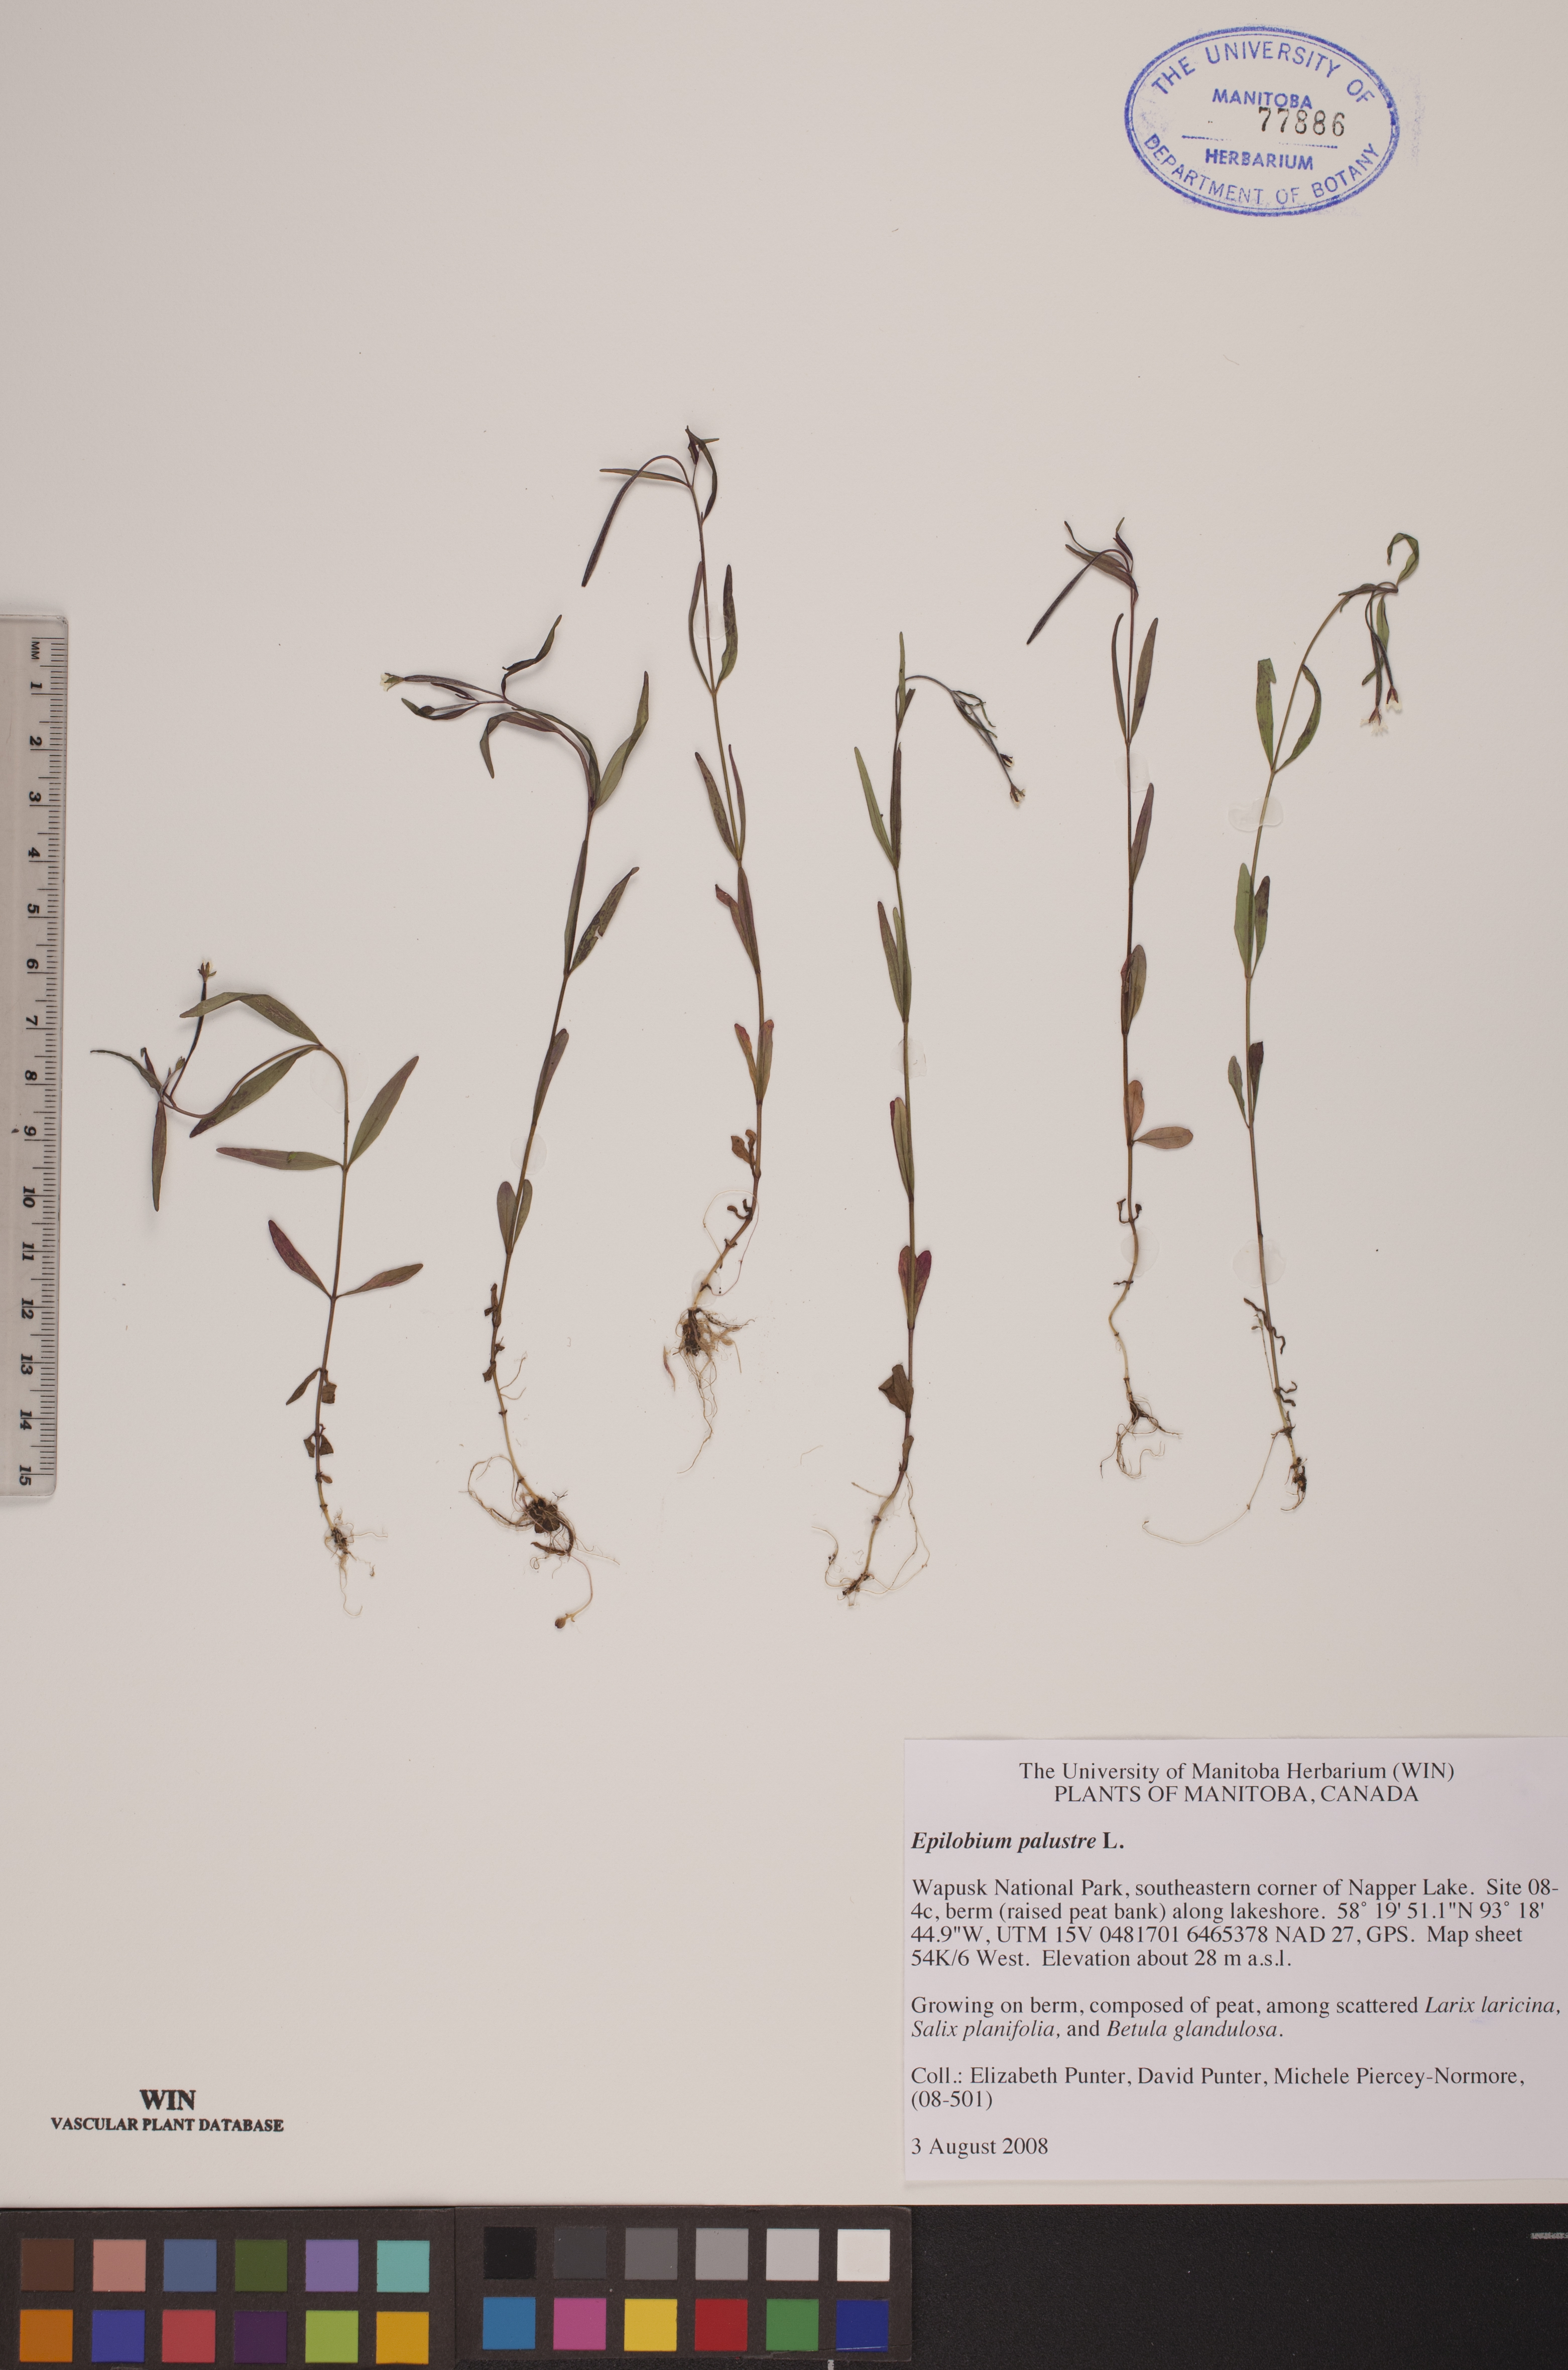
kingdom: Plantae
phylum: Tracheophyta
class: Magnoliopsida
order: Myrtales
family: Onagraceae
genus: Epilobium
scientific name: Epilobium palustre
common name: Marsh willowherb
